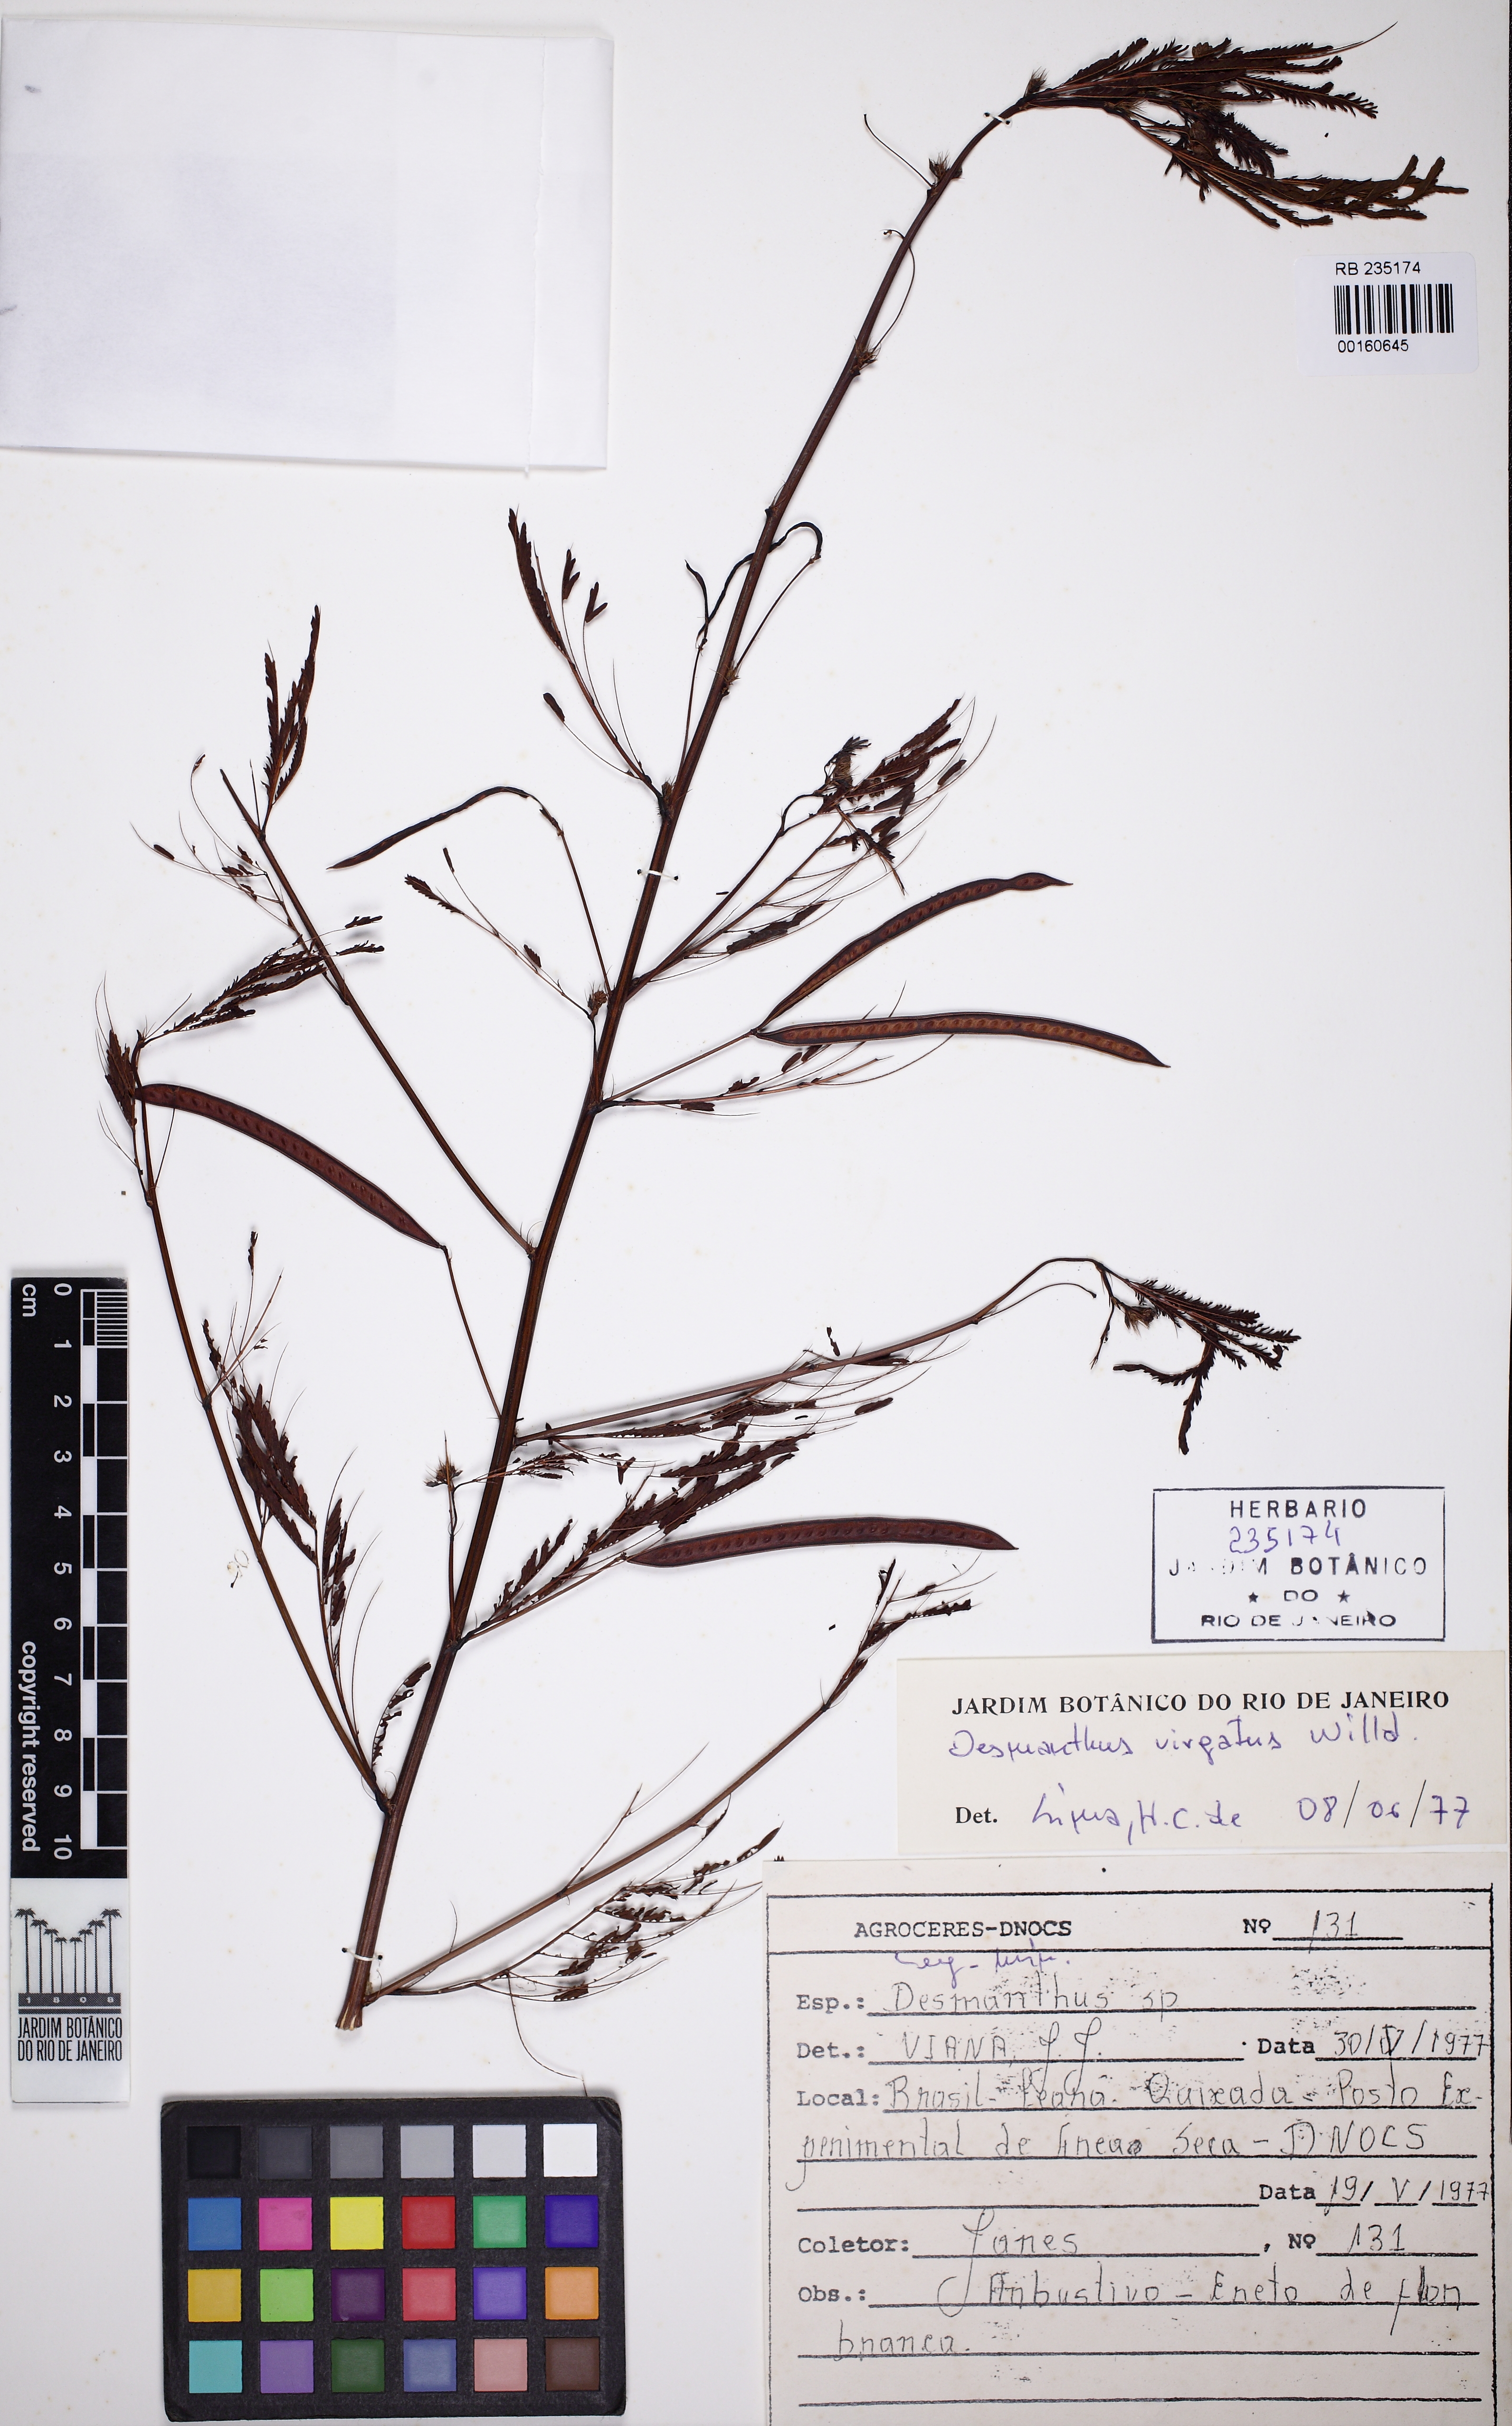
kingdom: Plantae
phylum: Tracheophyta
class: Magnoliopsida
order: Fabales
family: Fabaceae
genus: Desmanthus
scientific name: Desmanthus virgatus
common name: Wild tantan
